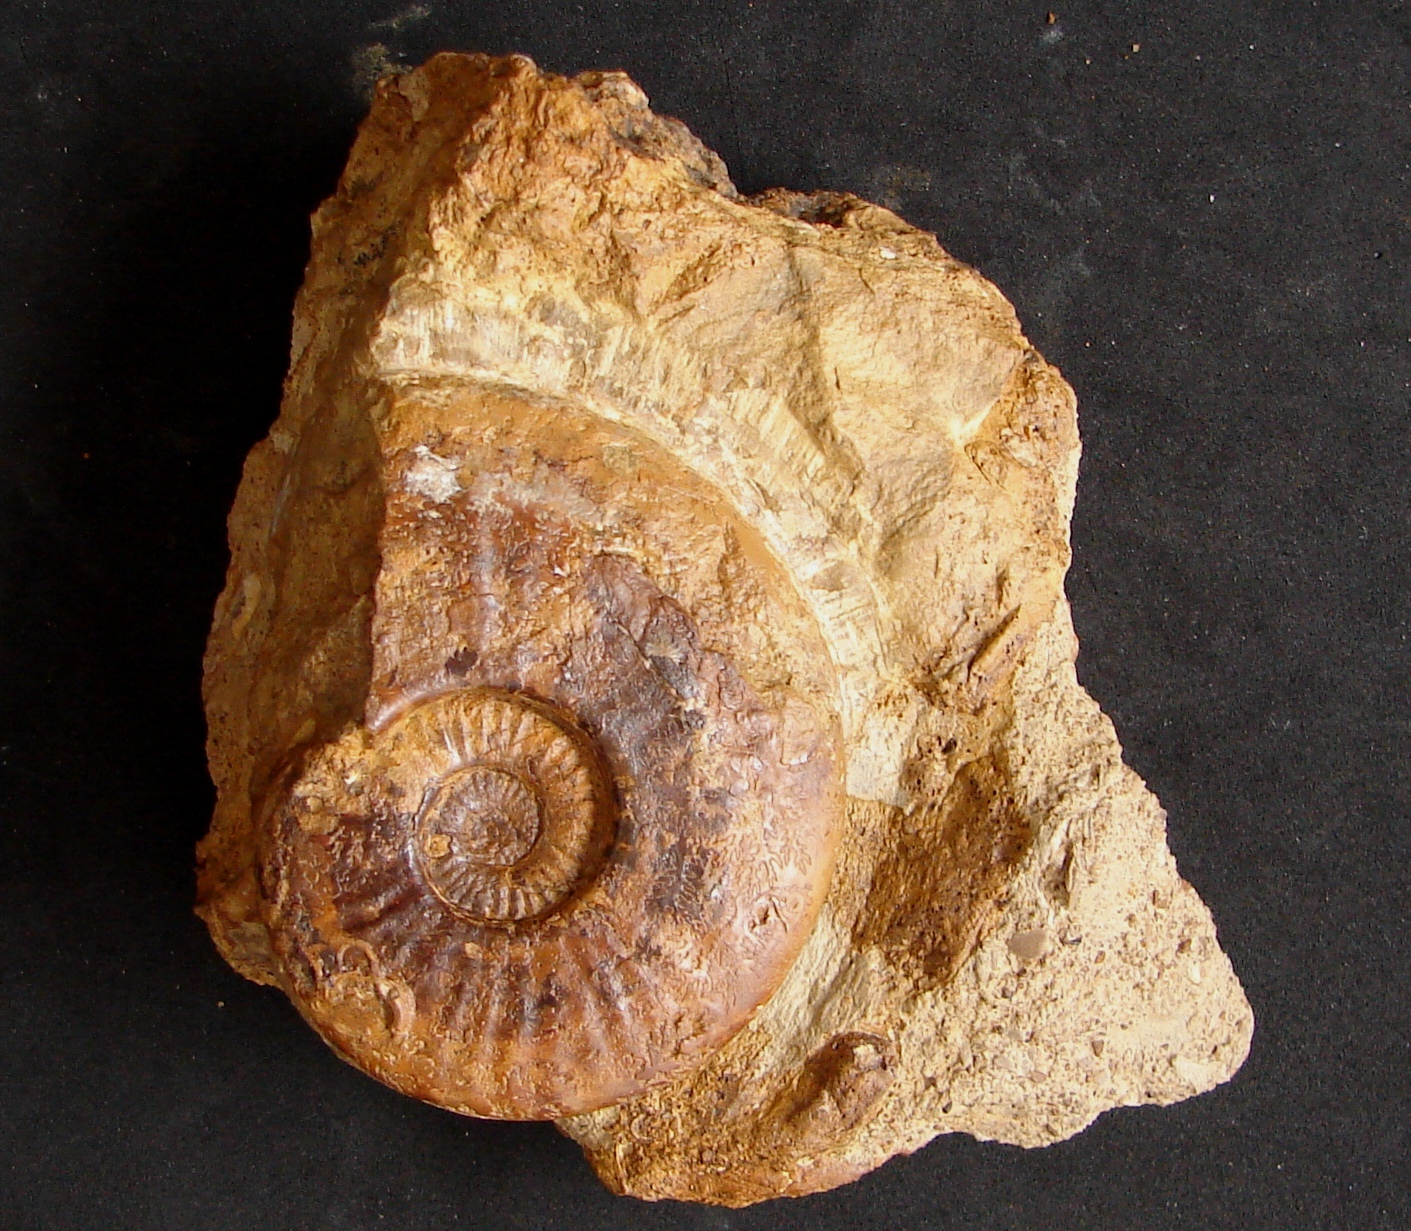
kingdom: Animalia
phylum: Mollusca
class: Cephalopoda
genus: Euhoploceras
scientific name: Euhoploceras
